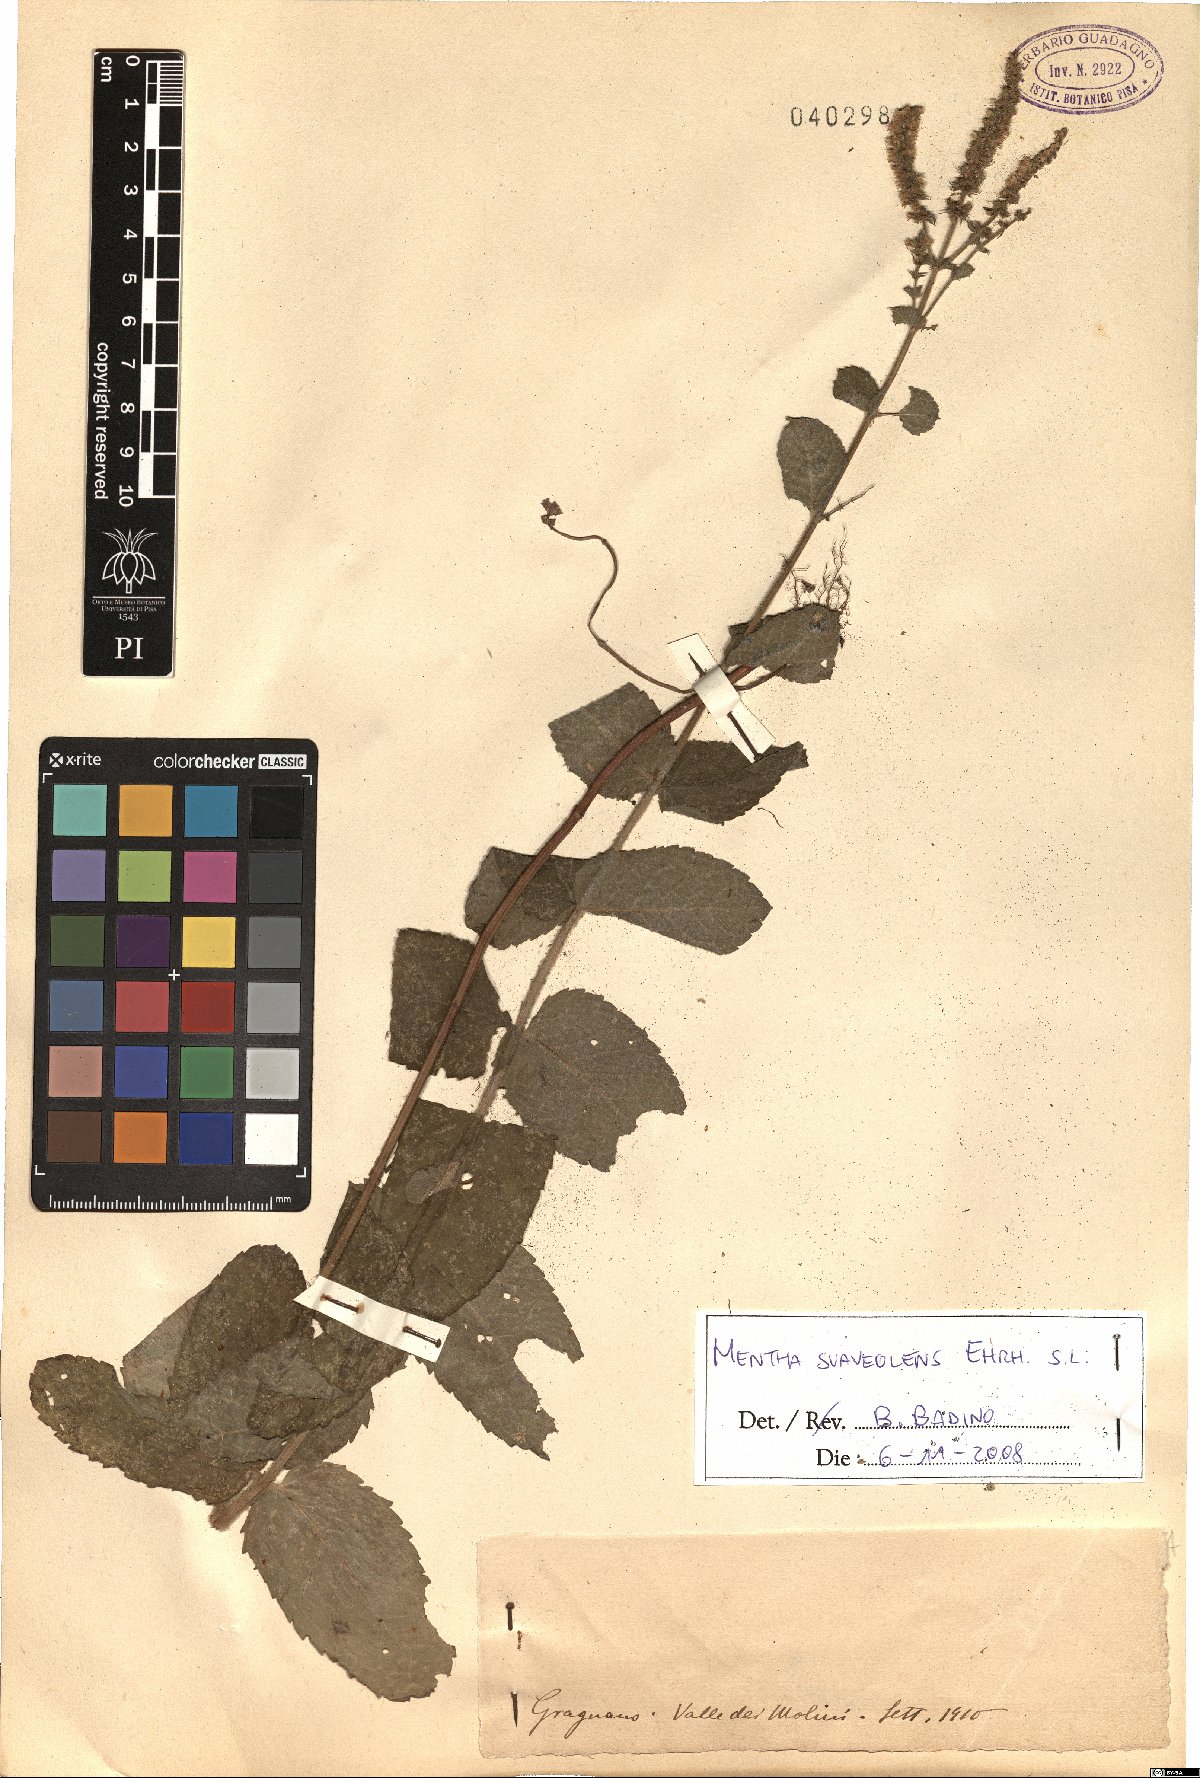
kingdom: Plantae
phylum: Tracheophyta
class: Magnoliopsida
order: Lamiales
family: Lamiaceae
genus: Mentha
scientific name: Mentha suaveolens
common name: Apple mint
